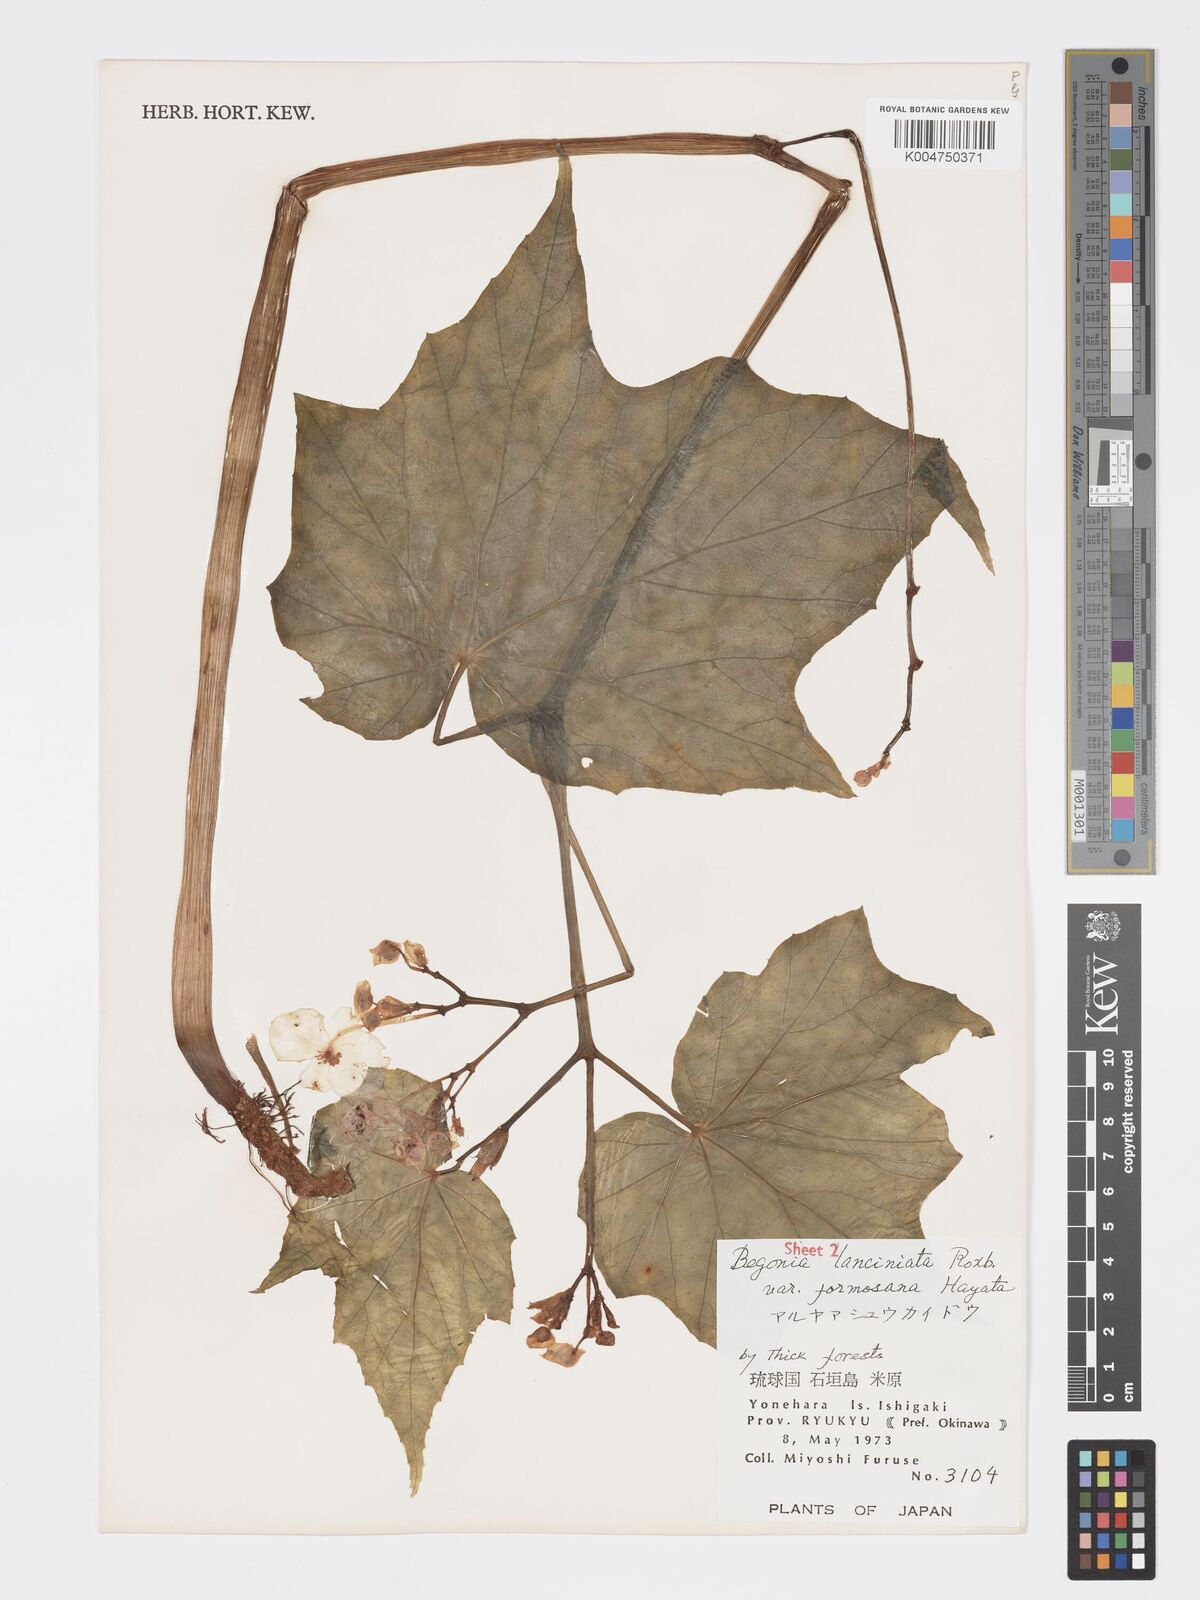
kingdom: Plantae
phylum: Tracheophyta
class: Magnoliopsida
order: Cucurbitales
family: Begoniaceae
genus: Begonia
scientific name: Begonia palmata
